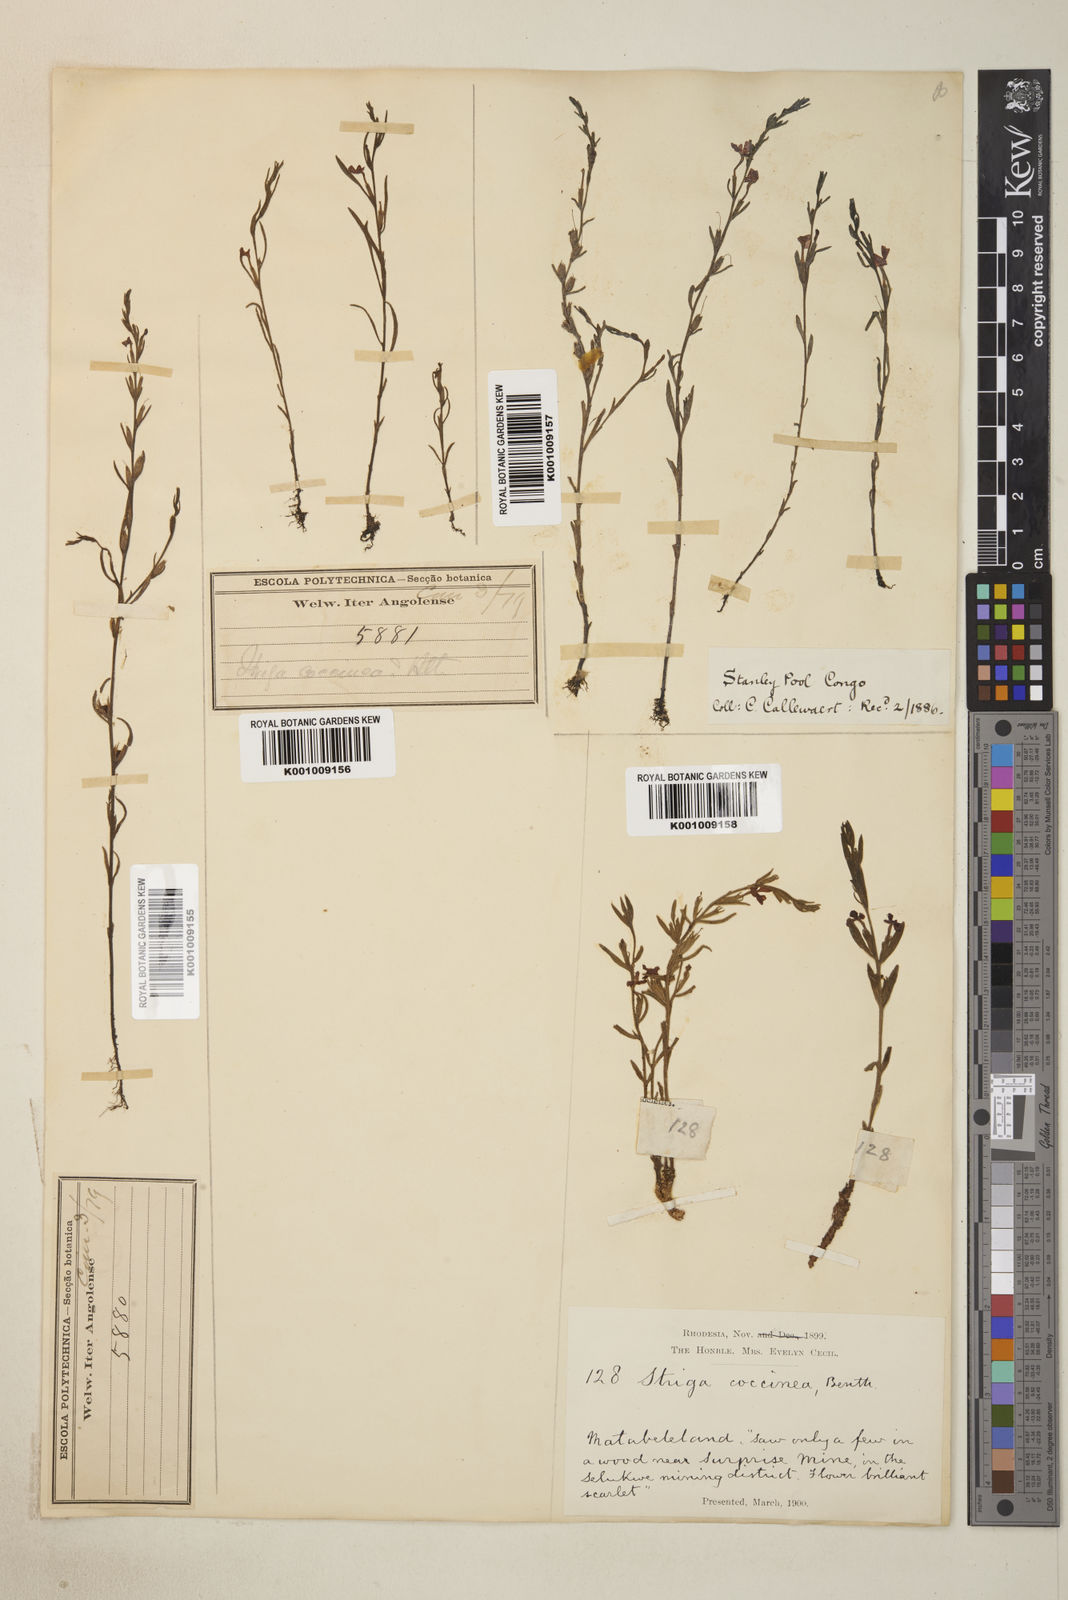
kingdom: Plantae
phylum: Tracheophyta
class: Magnoliopsida
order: Lamiales
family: Orobanchaceae
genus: Striga
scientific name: Striga asiatica
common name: Asiatic witchweed
